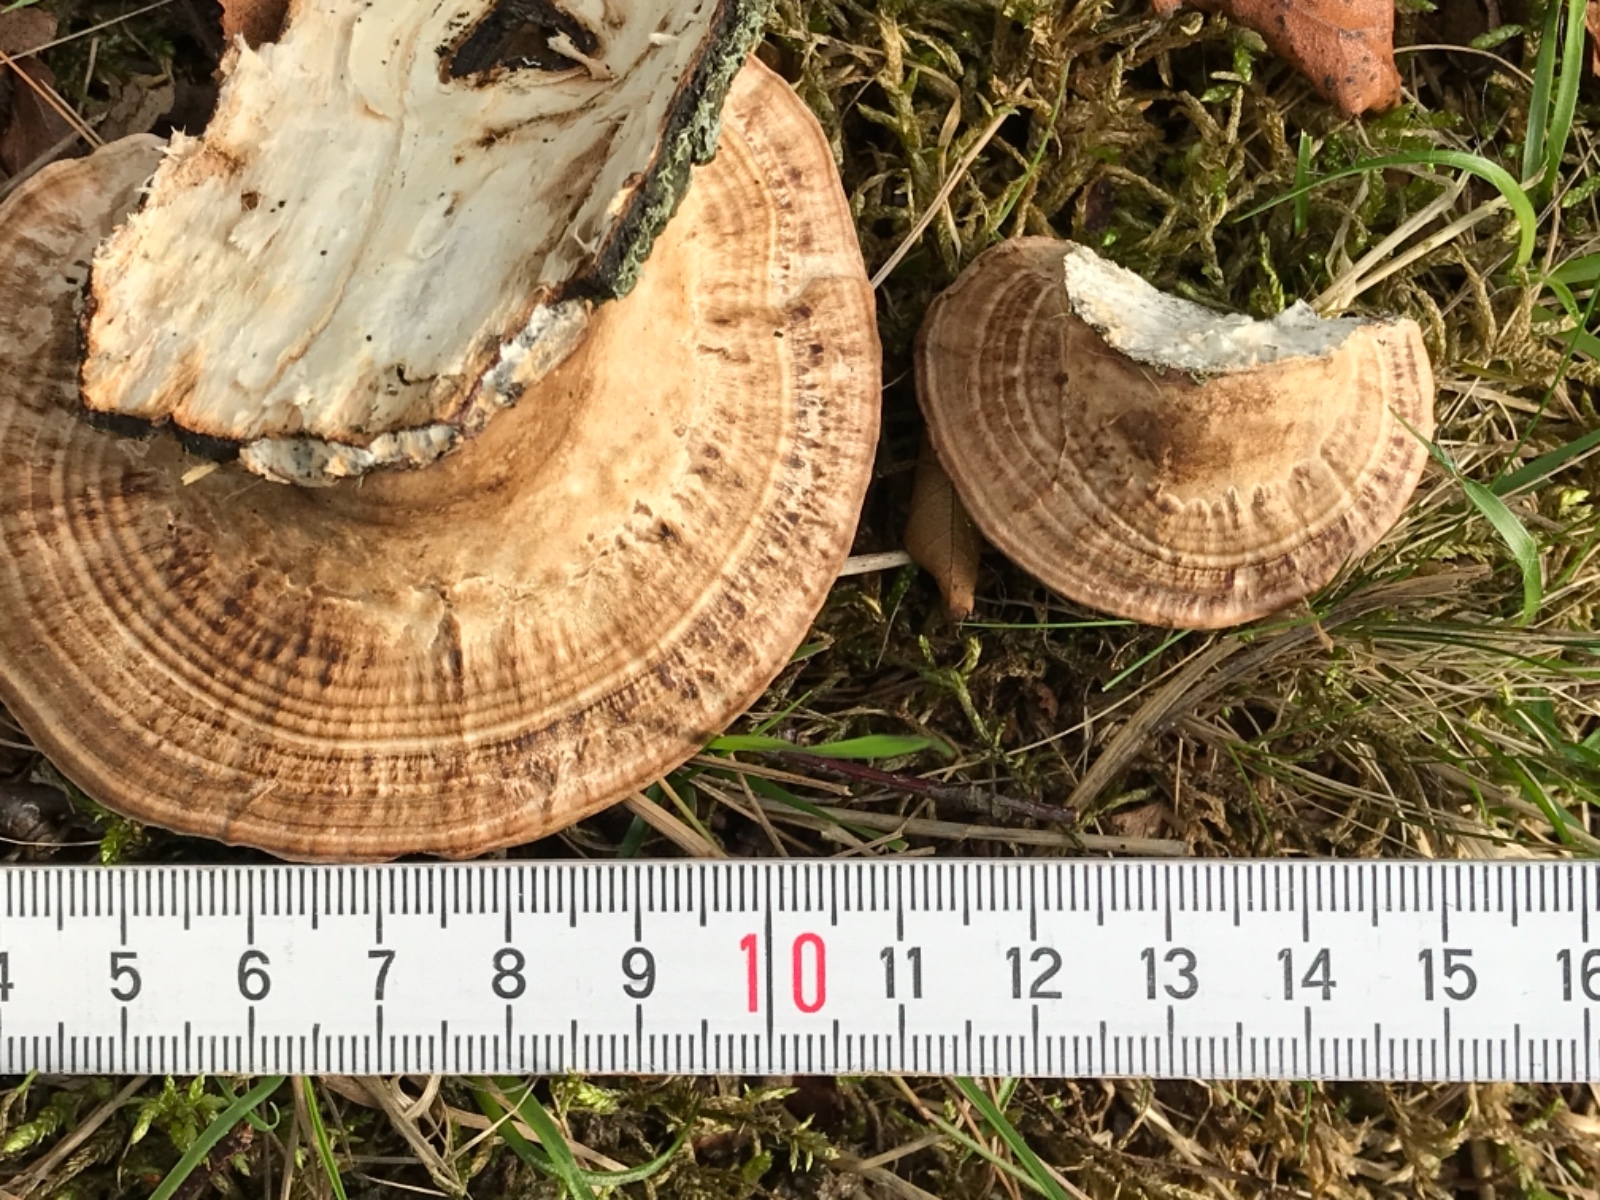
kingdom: Fungi
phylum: Basidiomycota
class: Agaricomycetes
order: Polyporales
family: Polyporaceae
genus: Daedaleopsis
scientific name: Daedaleopsis confragosa
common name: rødmende læderporesvamp
